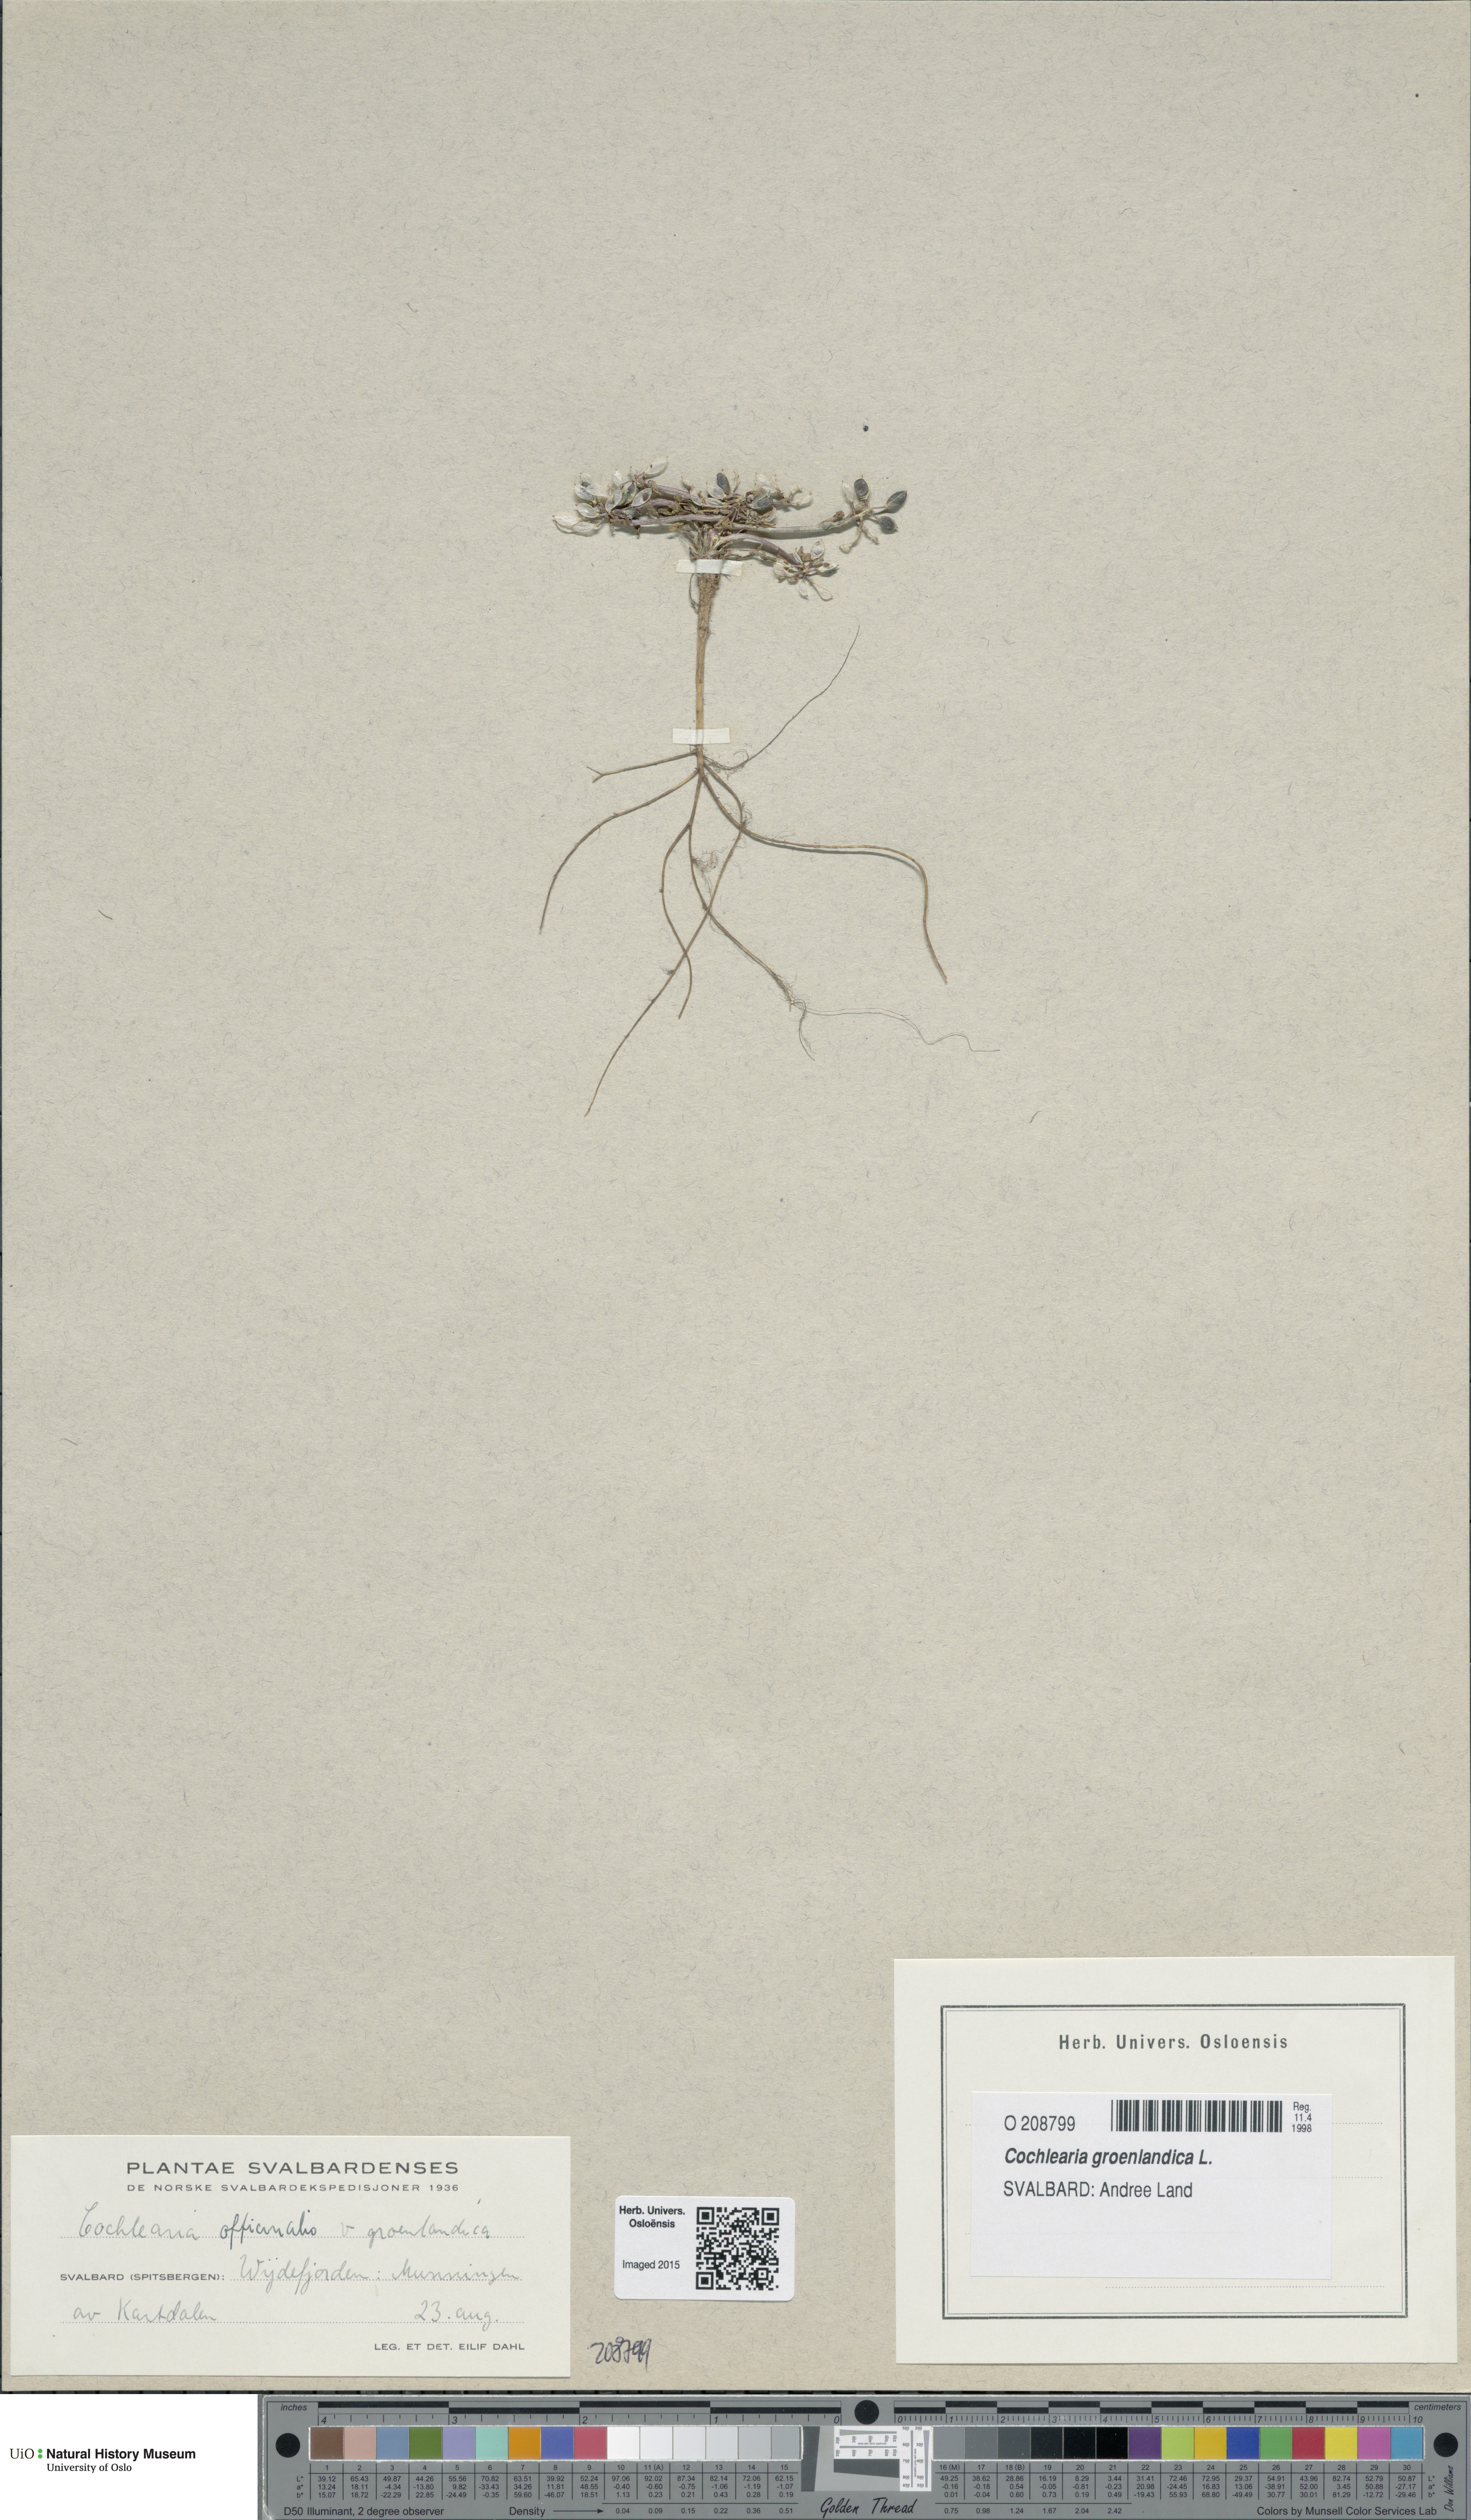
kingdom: Plantae
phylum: Tracheophyta
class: Magnoliopsida
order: Brassicales
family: Brassicaceae
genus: Cochlearia
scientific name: Cochlearia groenlandica
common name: Danish scurvygrass
